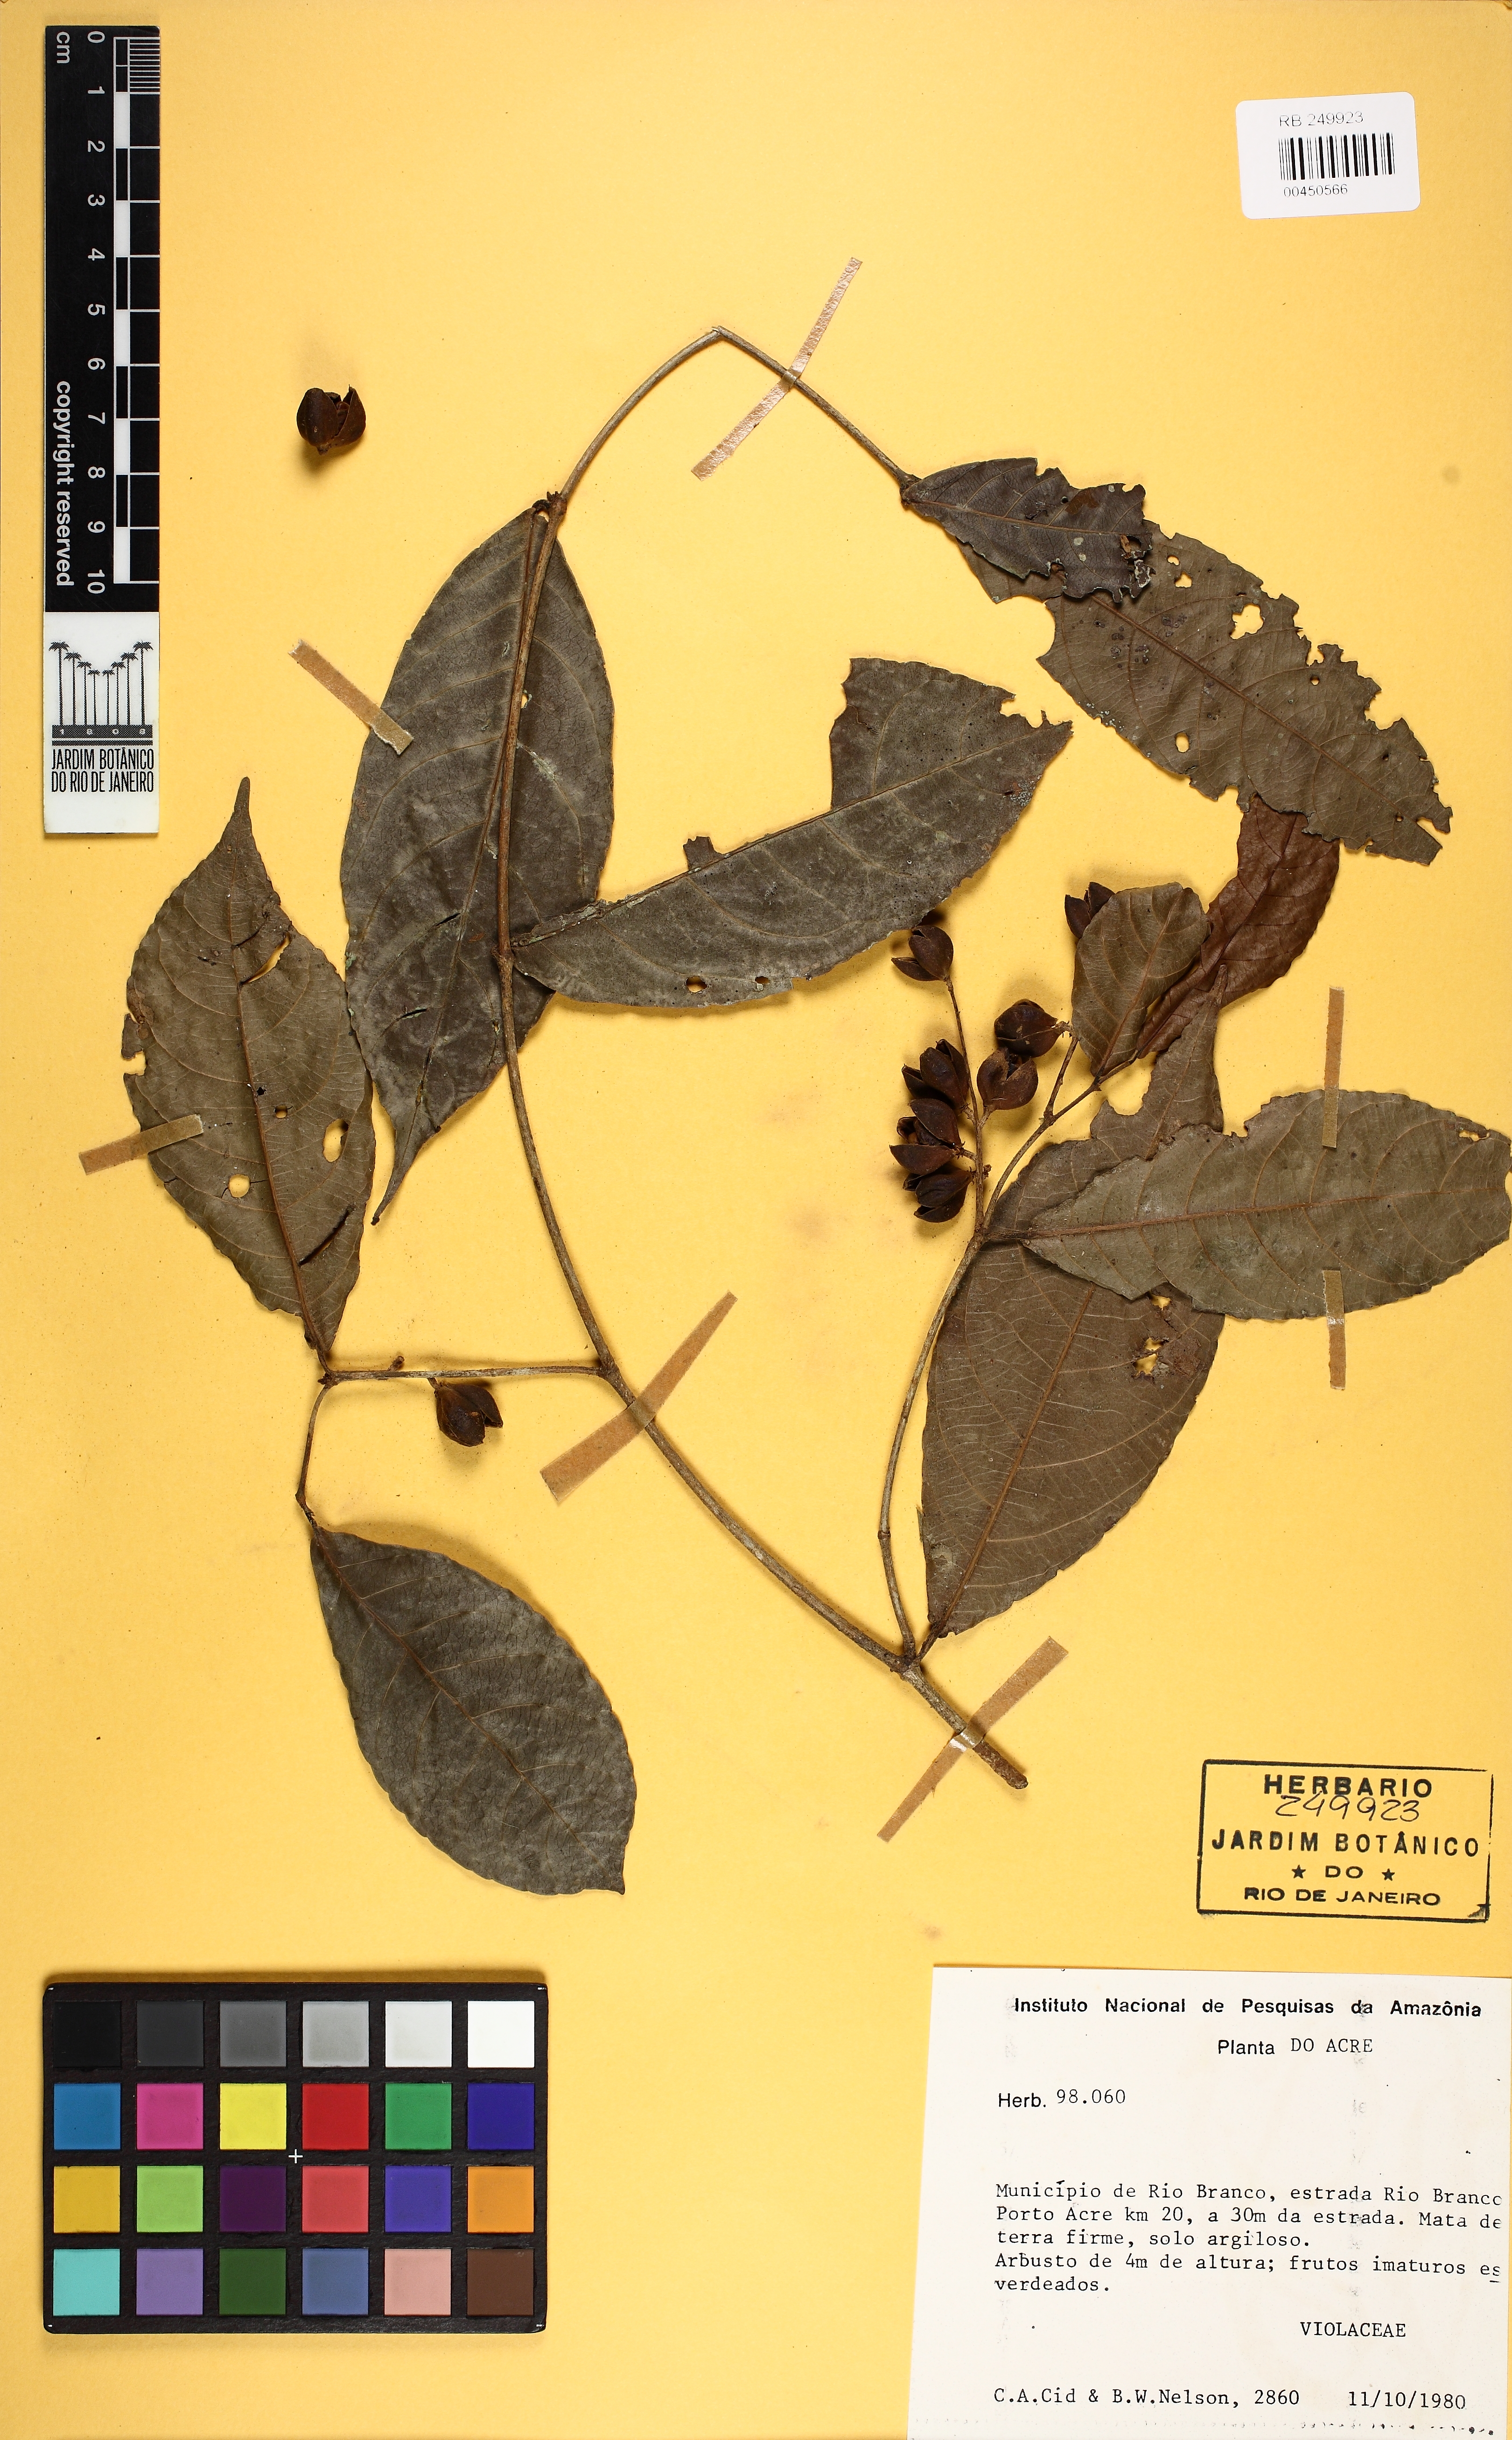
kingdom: Plantae
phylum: Tracheophyta
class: Magnoliopsida
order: Malpighiales
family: Violaceae
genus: Rinorea
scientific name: Rinorea
